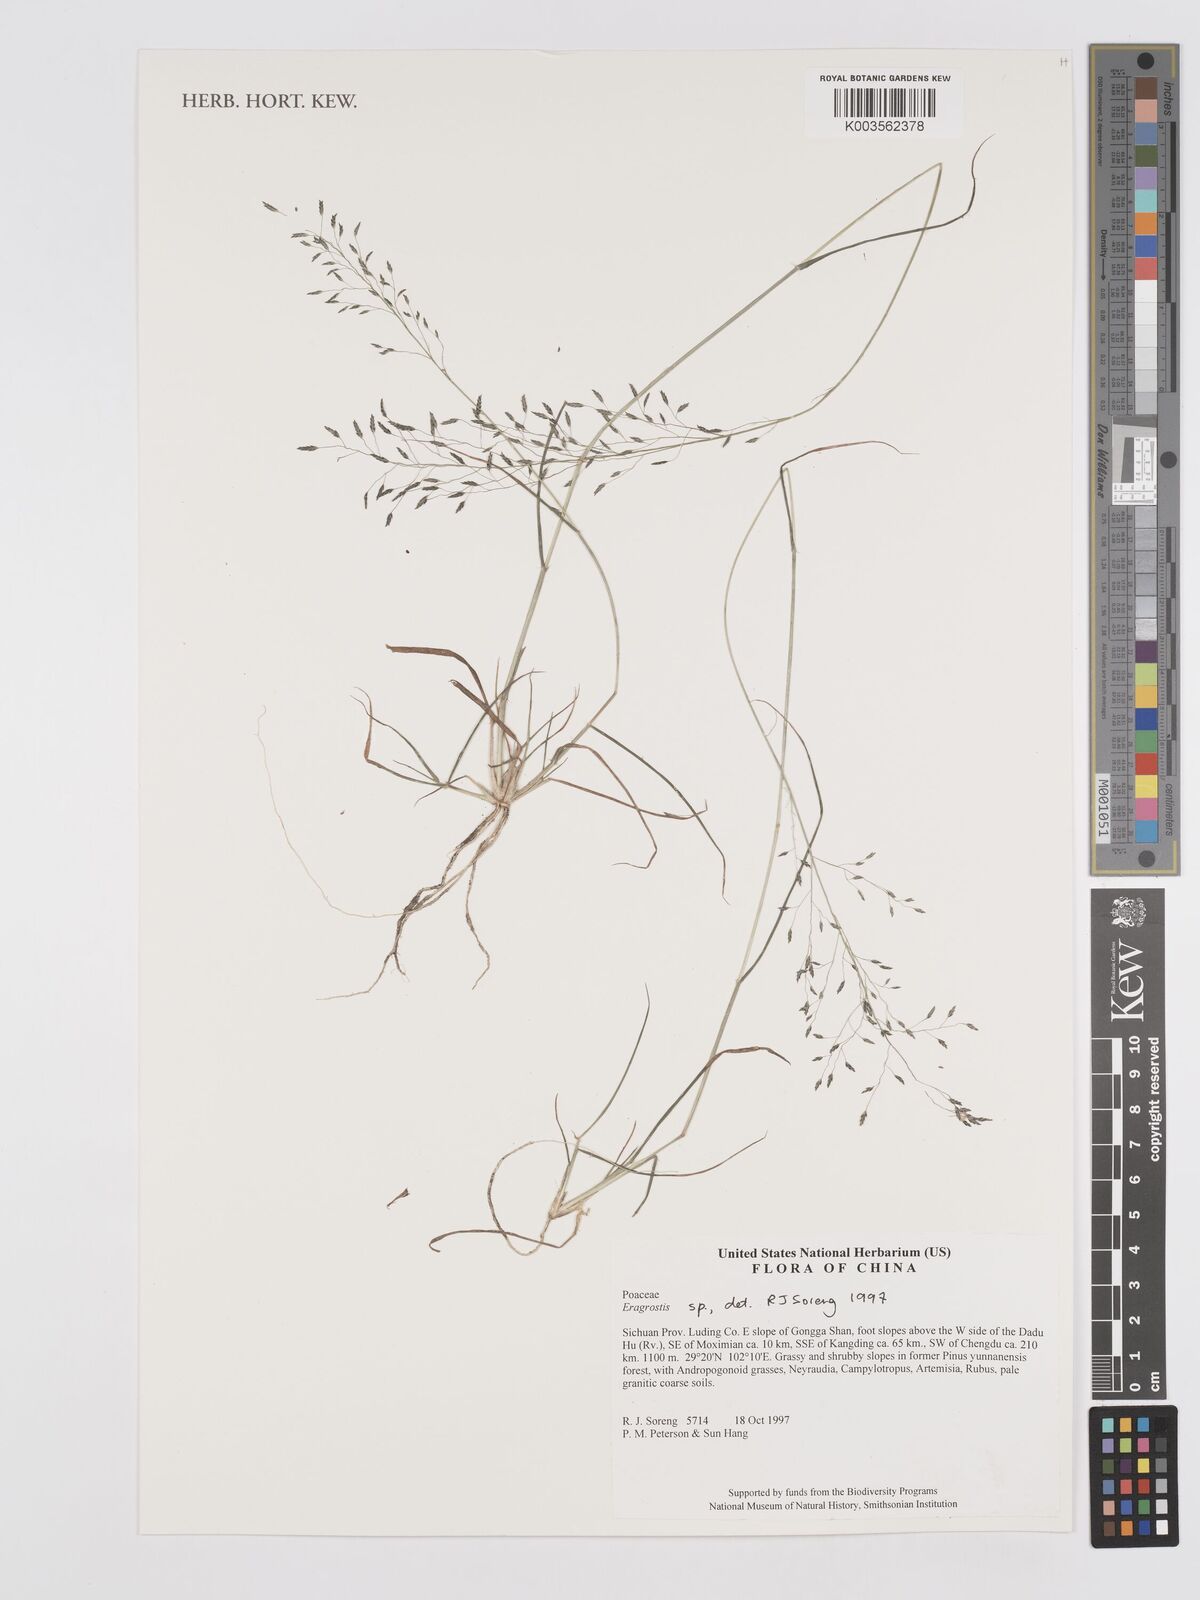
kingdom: Plantae
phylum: Tracheophyta
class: Liliopsida
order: Poales
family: Poaceae
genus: Eragrostis
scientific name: Eragrostis
